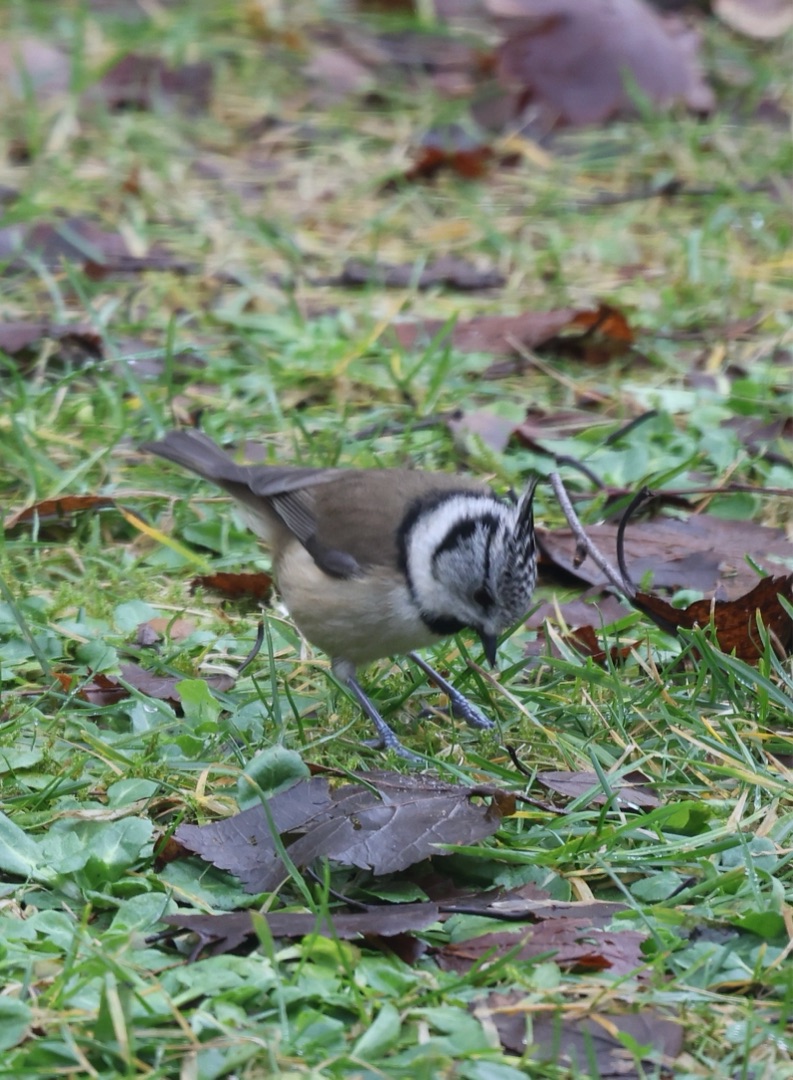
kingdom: Animalia
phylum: Chordata
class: Aves
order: Passeriformes
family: Paridae
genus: Lophophanes
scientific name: Lophophanes cristatus
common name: Topmejse
